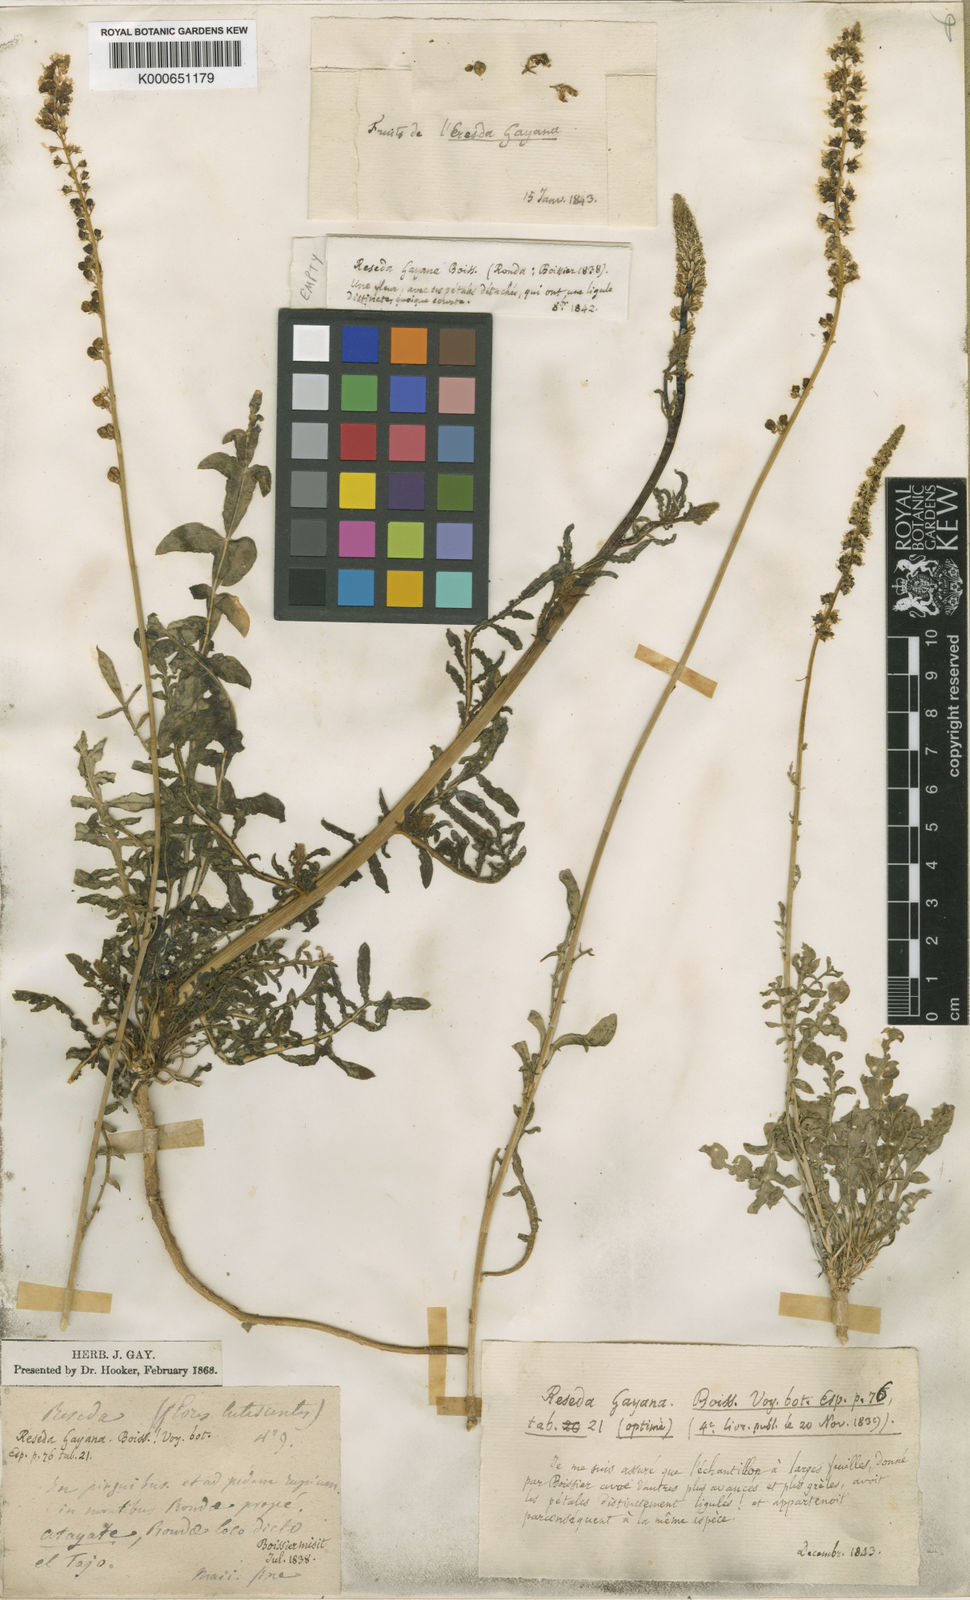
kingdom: Plantae
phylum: Tracheophyta
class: Magnoliopsida
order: Brassicales
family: Resedaceae
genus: Reseda
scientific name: Reseda undata
